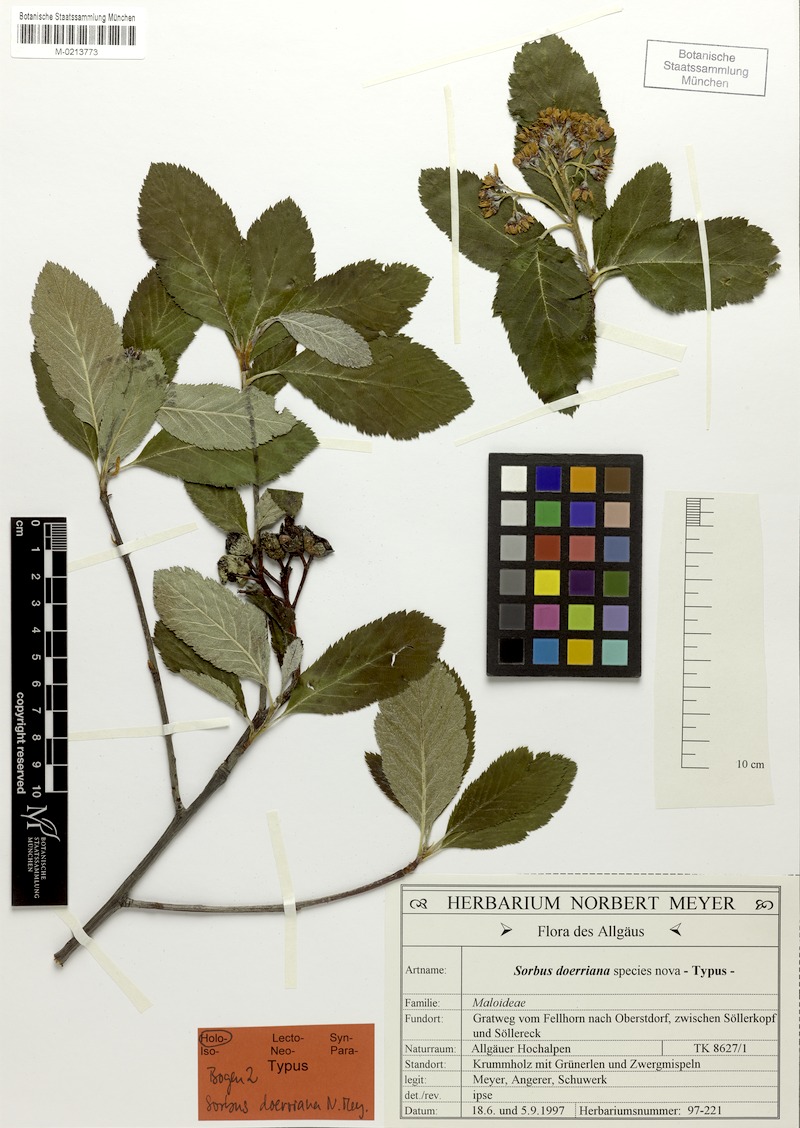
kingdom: Plantae
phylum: Tracheophyta
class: Magnoliopsida
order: Rosales
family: Rosaceae
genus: Normeyera
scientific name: Normeyera doerriana
